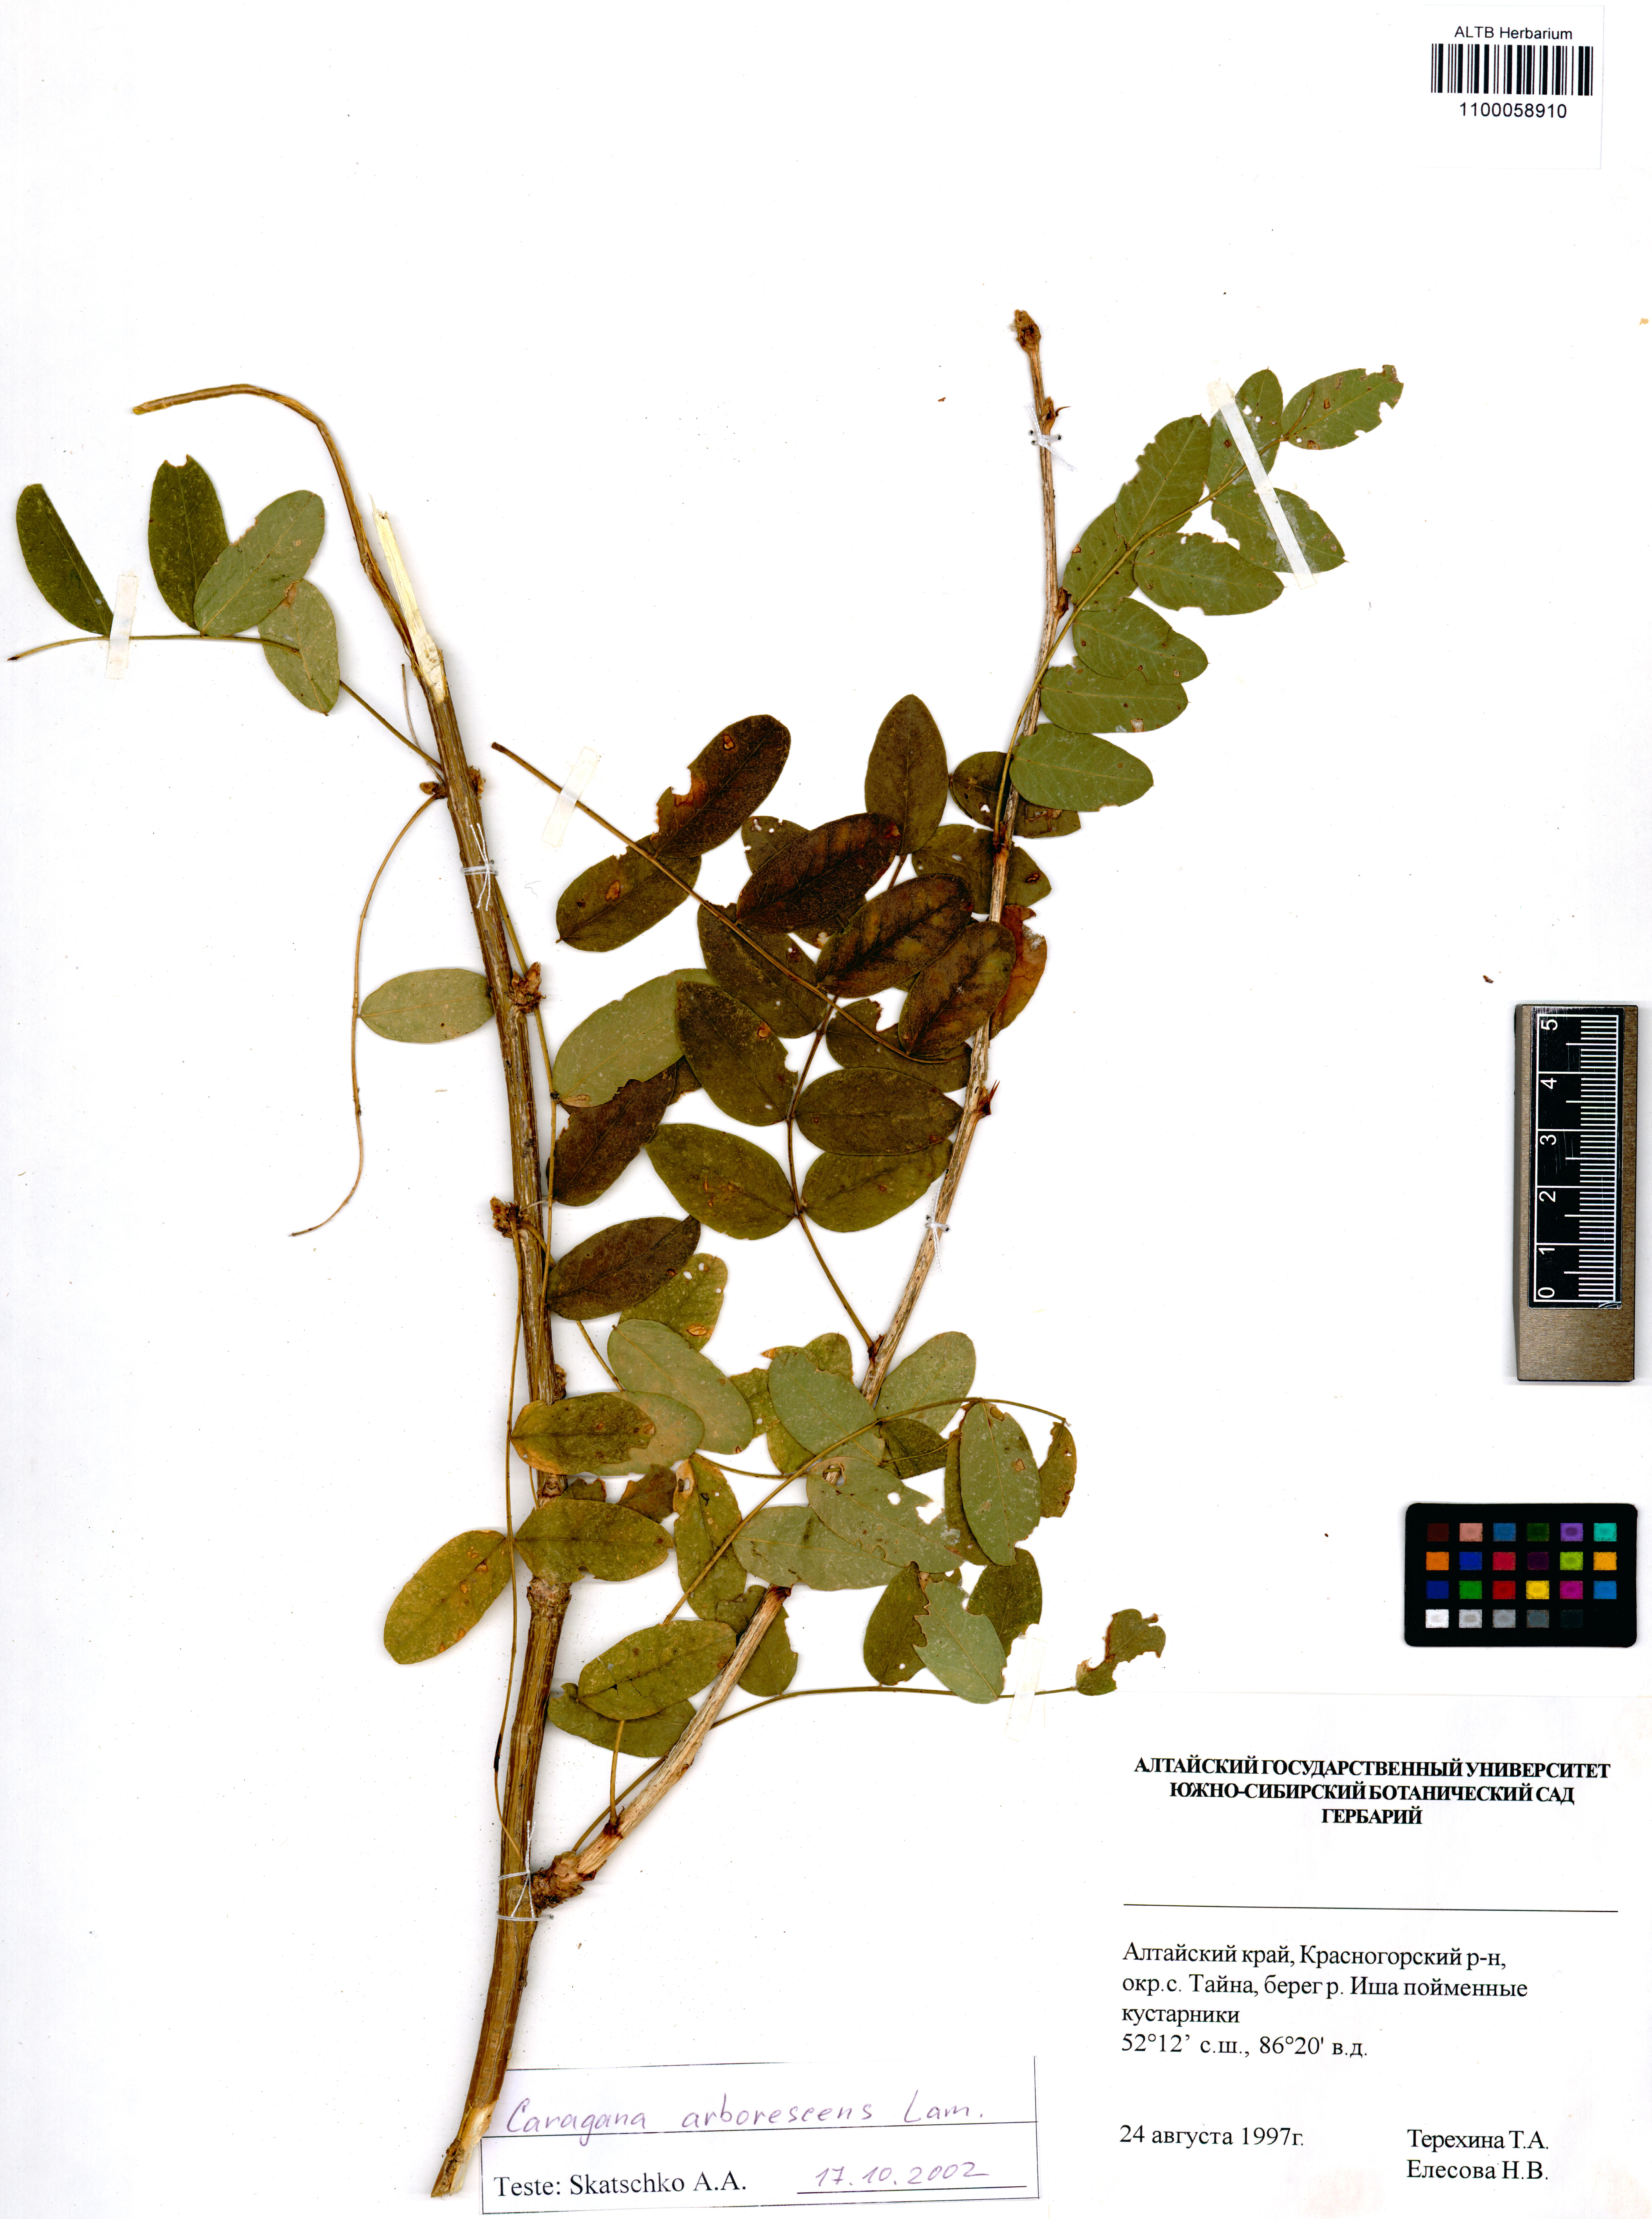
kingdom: Plantae
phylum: Tracheophyta
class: Magnoliopsida
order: Fabales
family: Fabaceae
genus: Caragana
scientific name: Caragana arborescens
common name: Siberian peashrub
